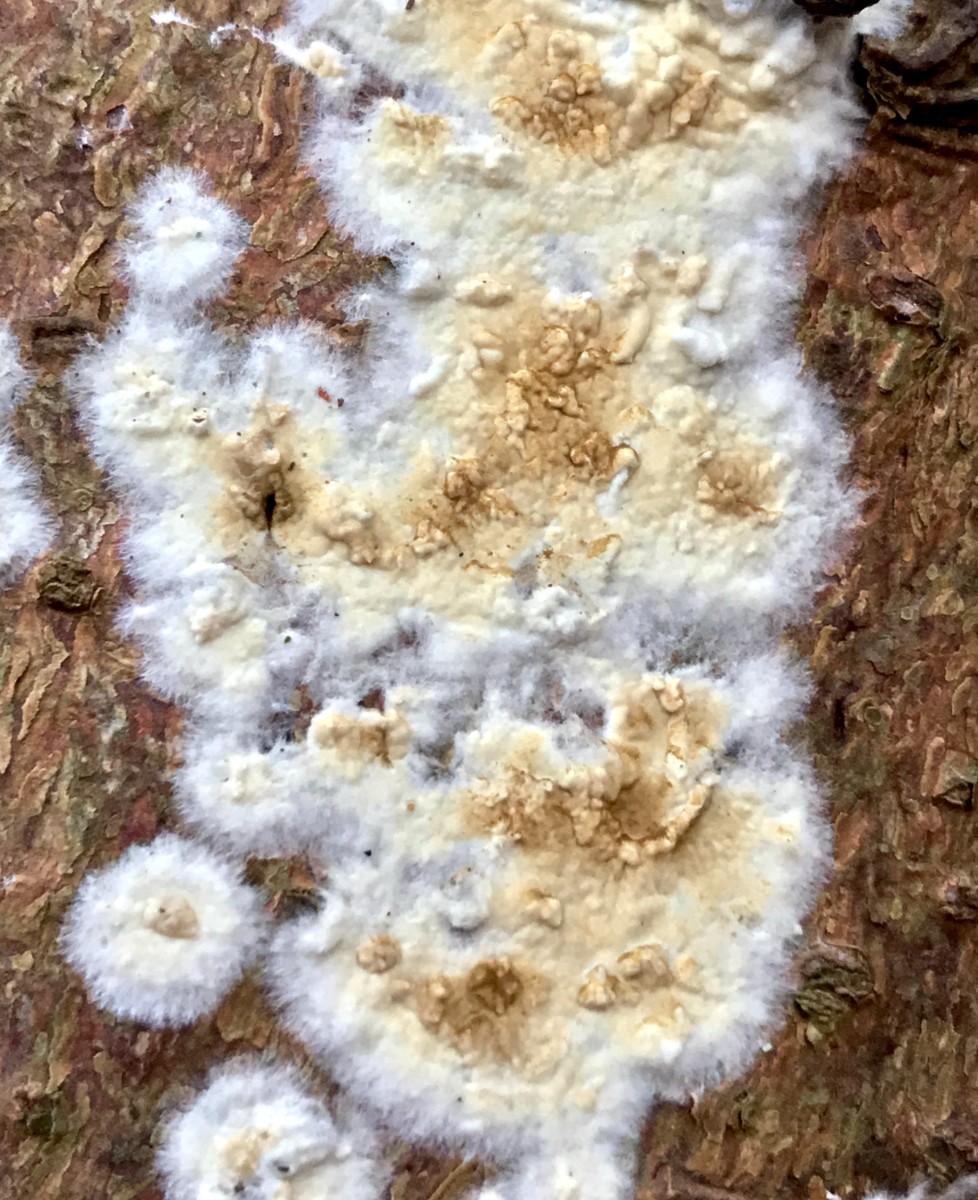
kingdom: Fungi
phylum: Basidiomycota
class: Agaricomycetes
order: Boletales
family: Coniophoraceae
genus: Coniophora
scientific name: Coniophora puteana
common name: gul tømmersvamp
